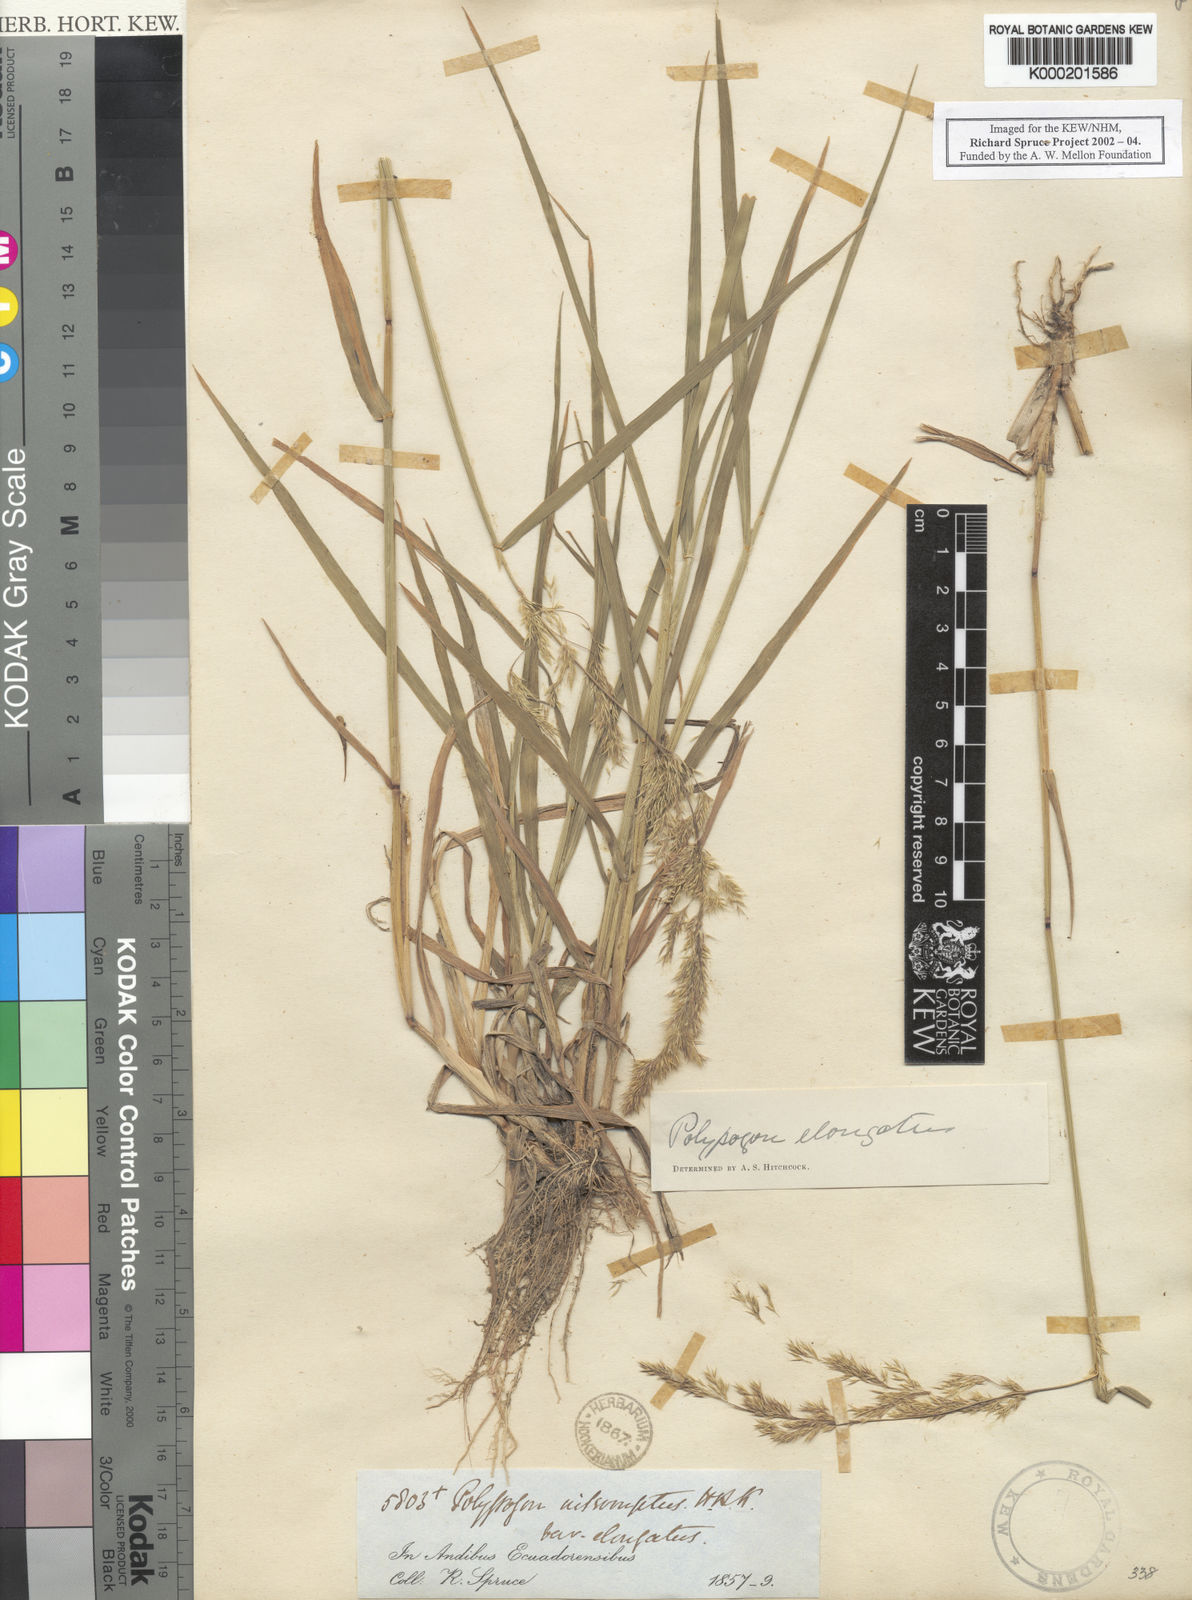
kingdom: Plantae
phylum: Tracheophyta
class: Liliopsida
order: Poales
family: Poaceae
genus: Polypogon
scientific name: Polypogon elongatus
